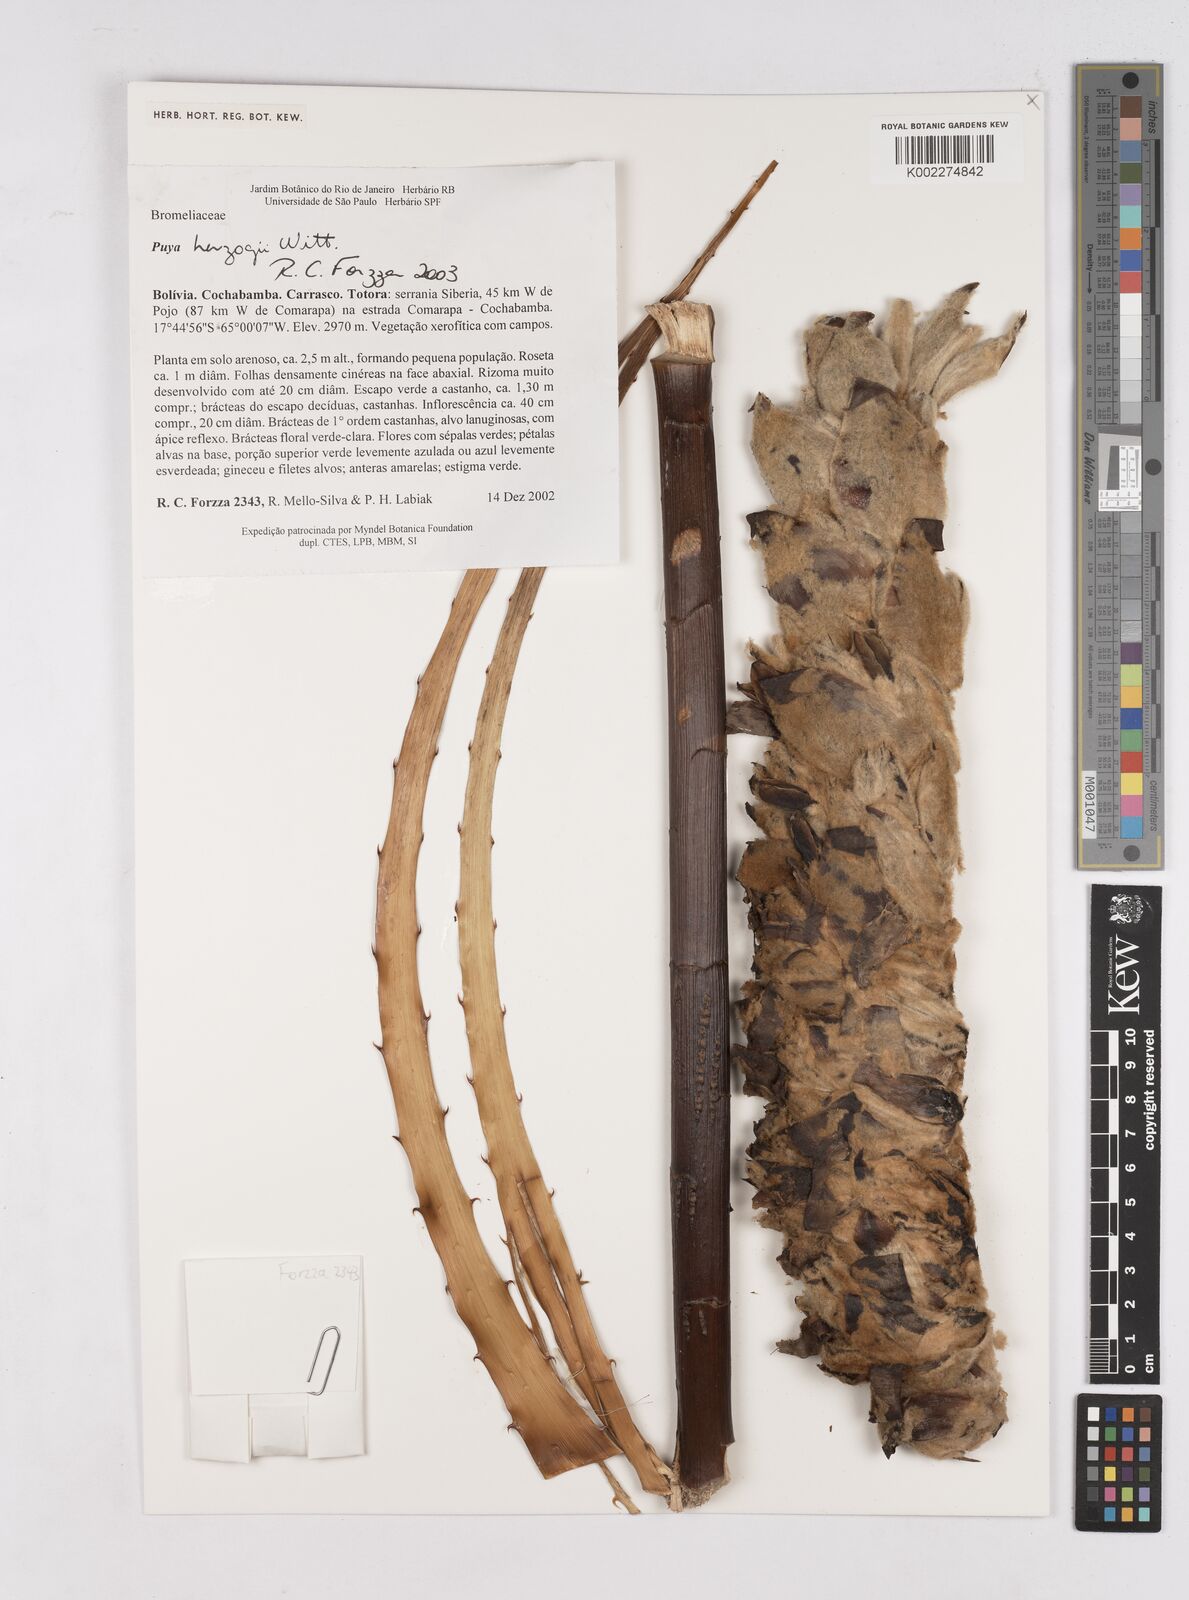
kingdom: Plantae
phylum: Tracheophyta
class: Liliopsida
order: Poales
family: Bromeliaceae
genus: Puya
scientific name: Puya herzogii
